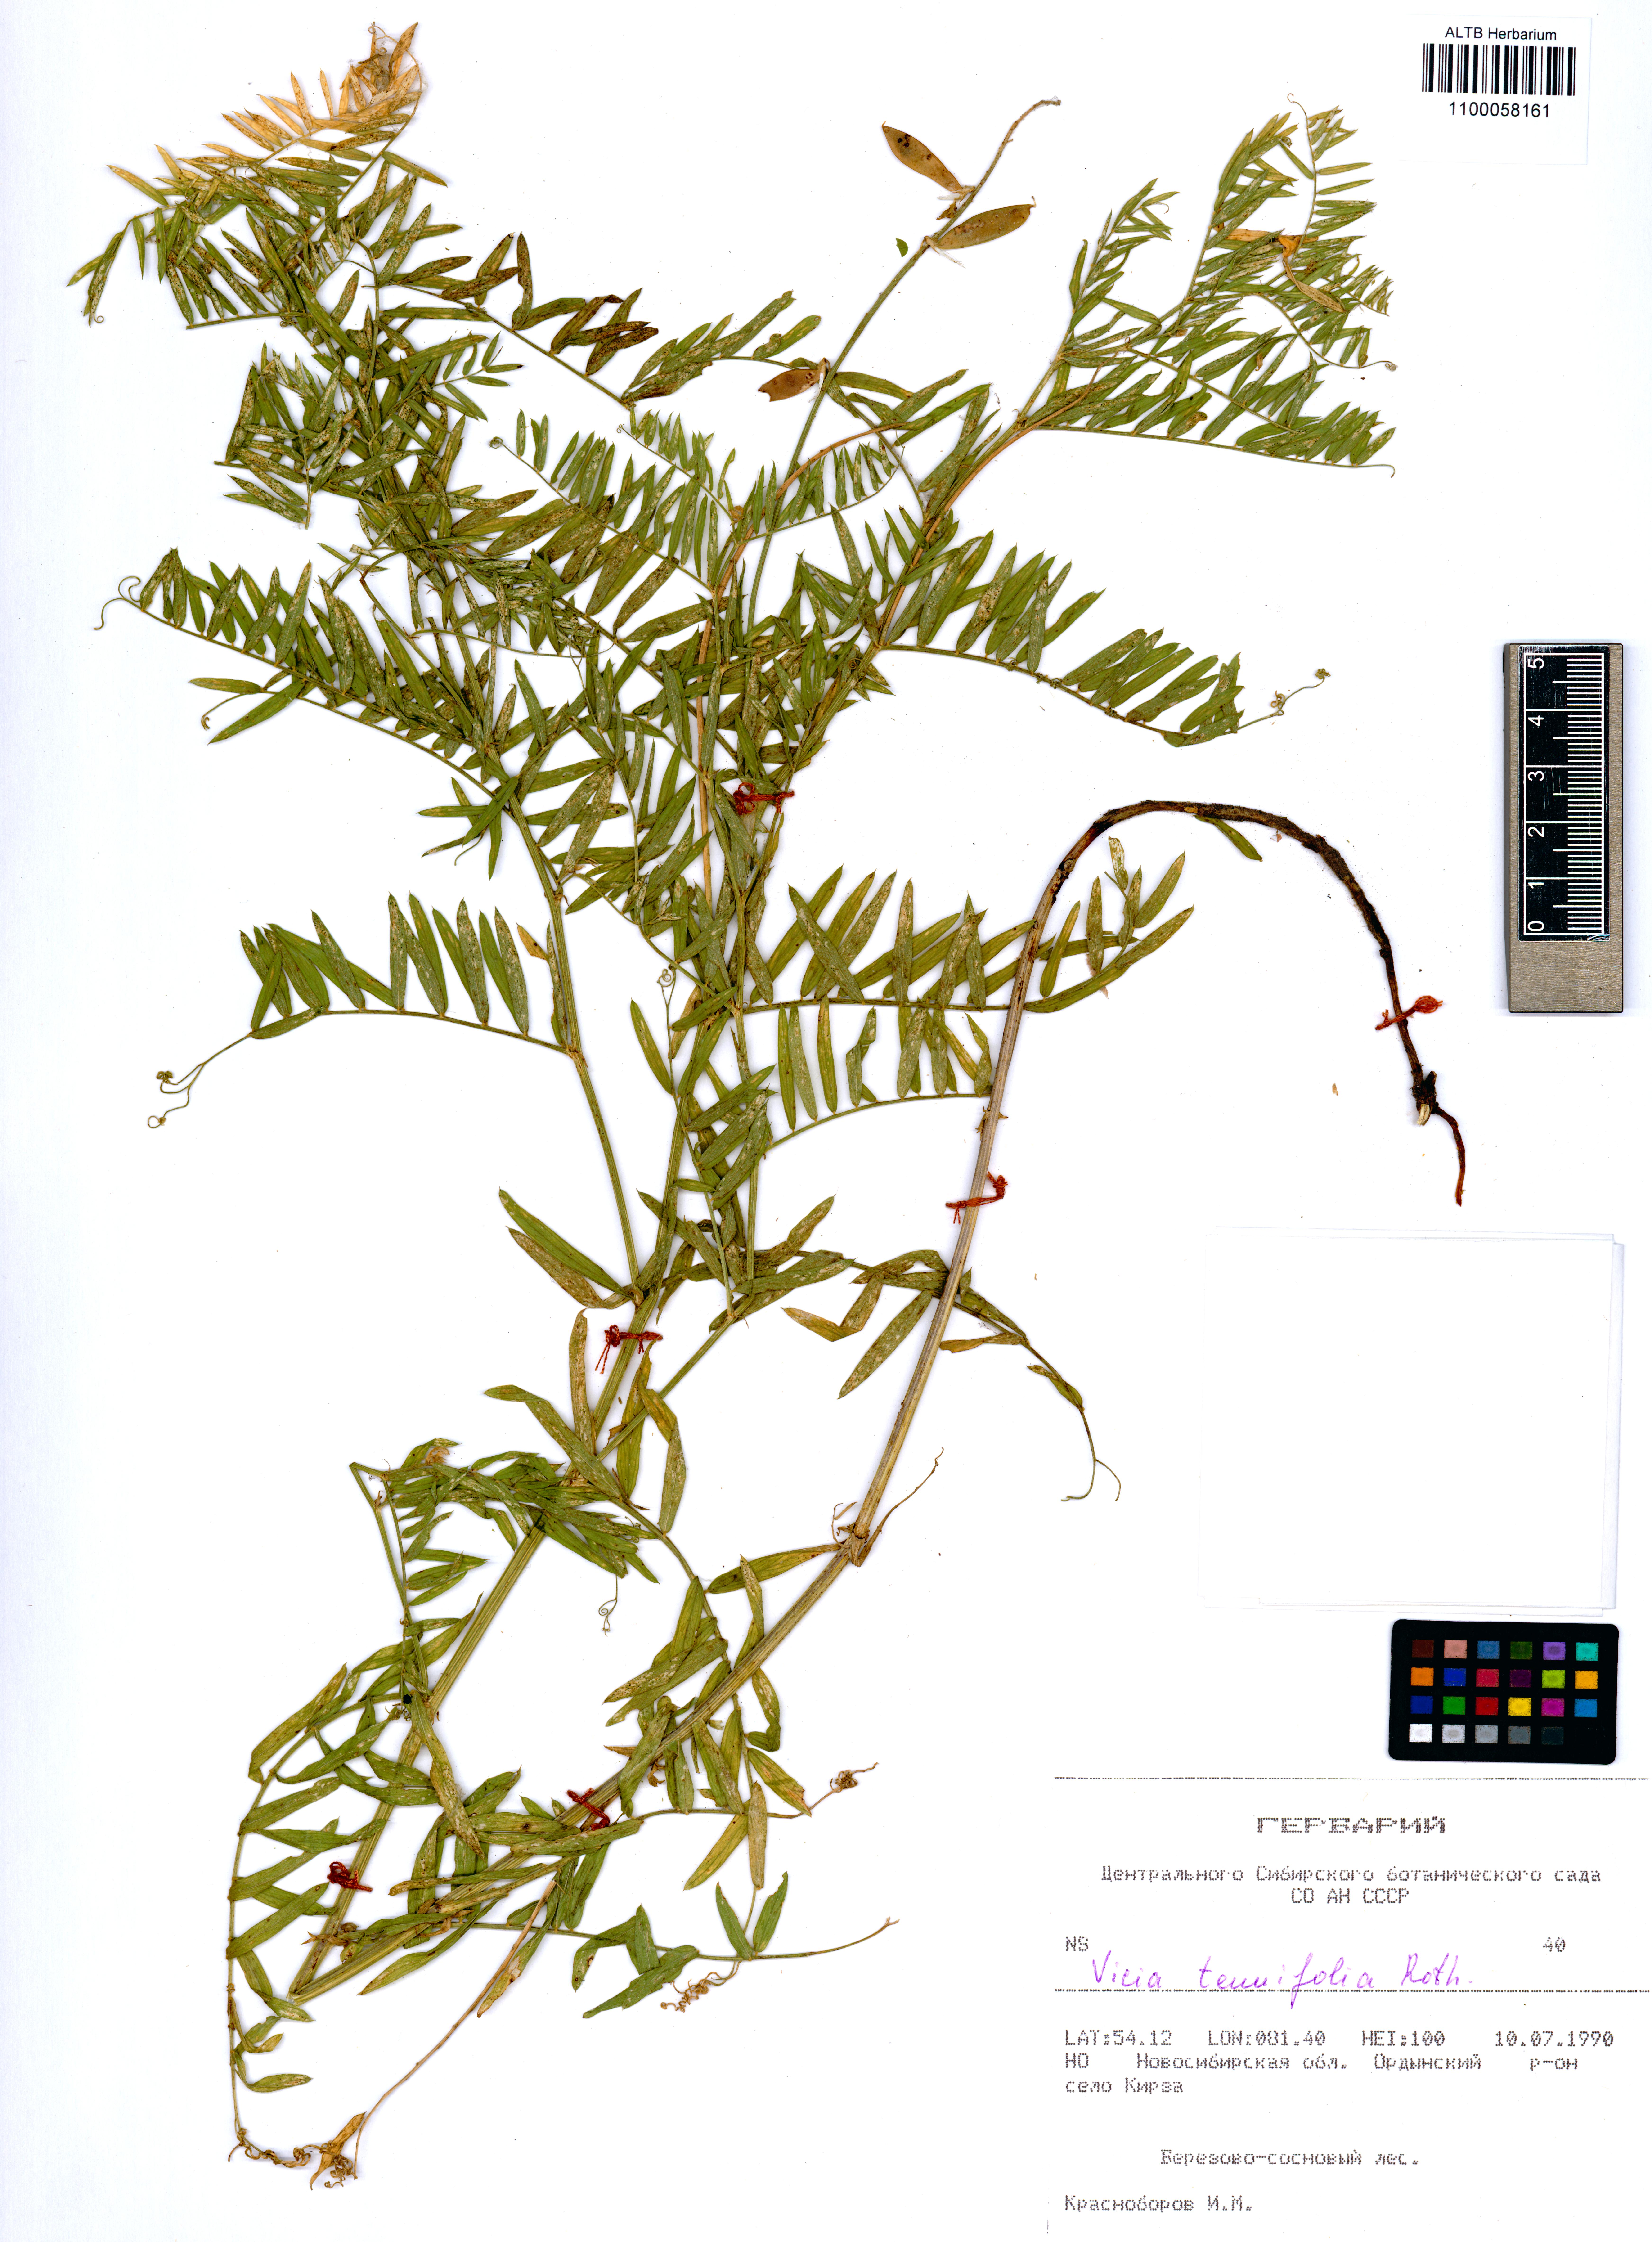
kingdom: Plantae
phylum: Tracheophyta
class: Magnoliopsida
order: Fabales
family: Fabaceae
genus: Vicia
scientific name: Vicia tenuifolia
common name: Fine-leaved vetch
